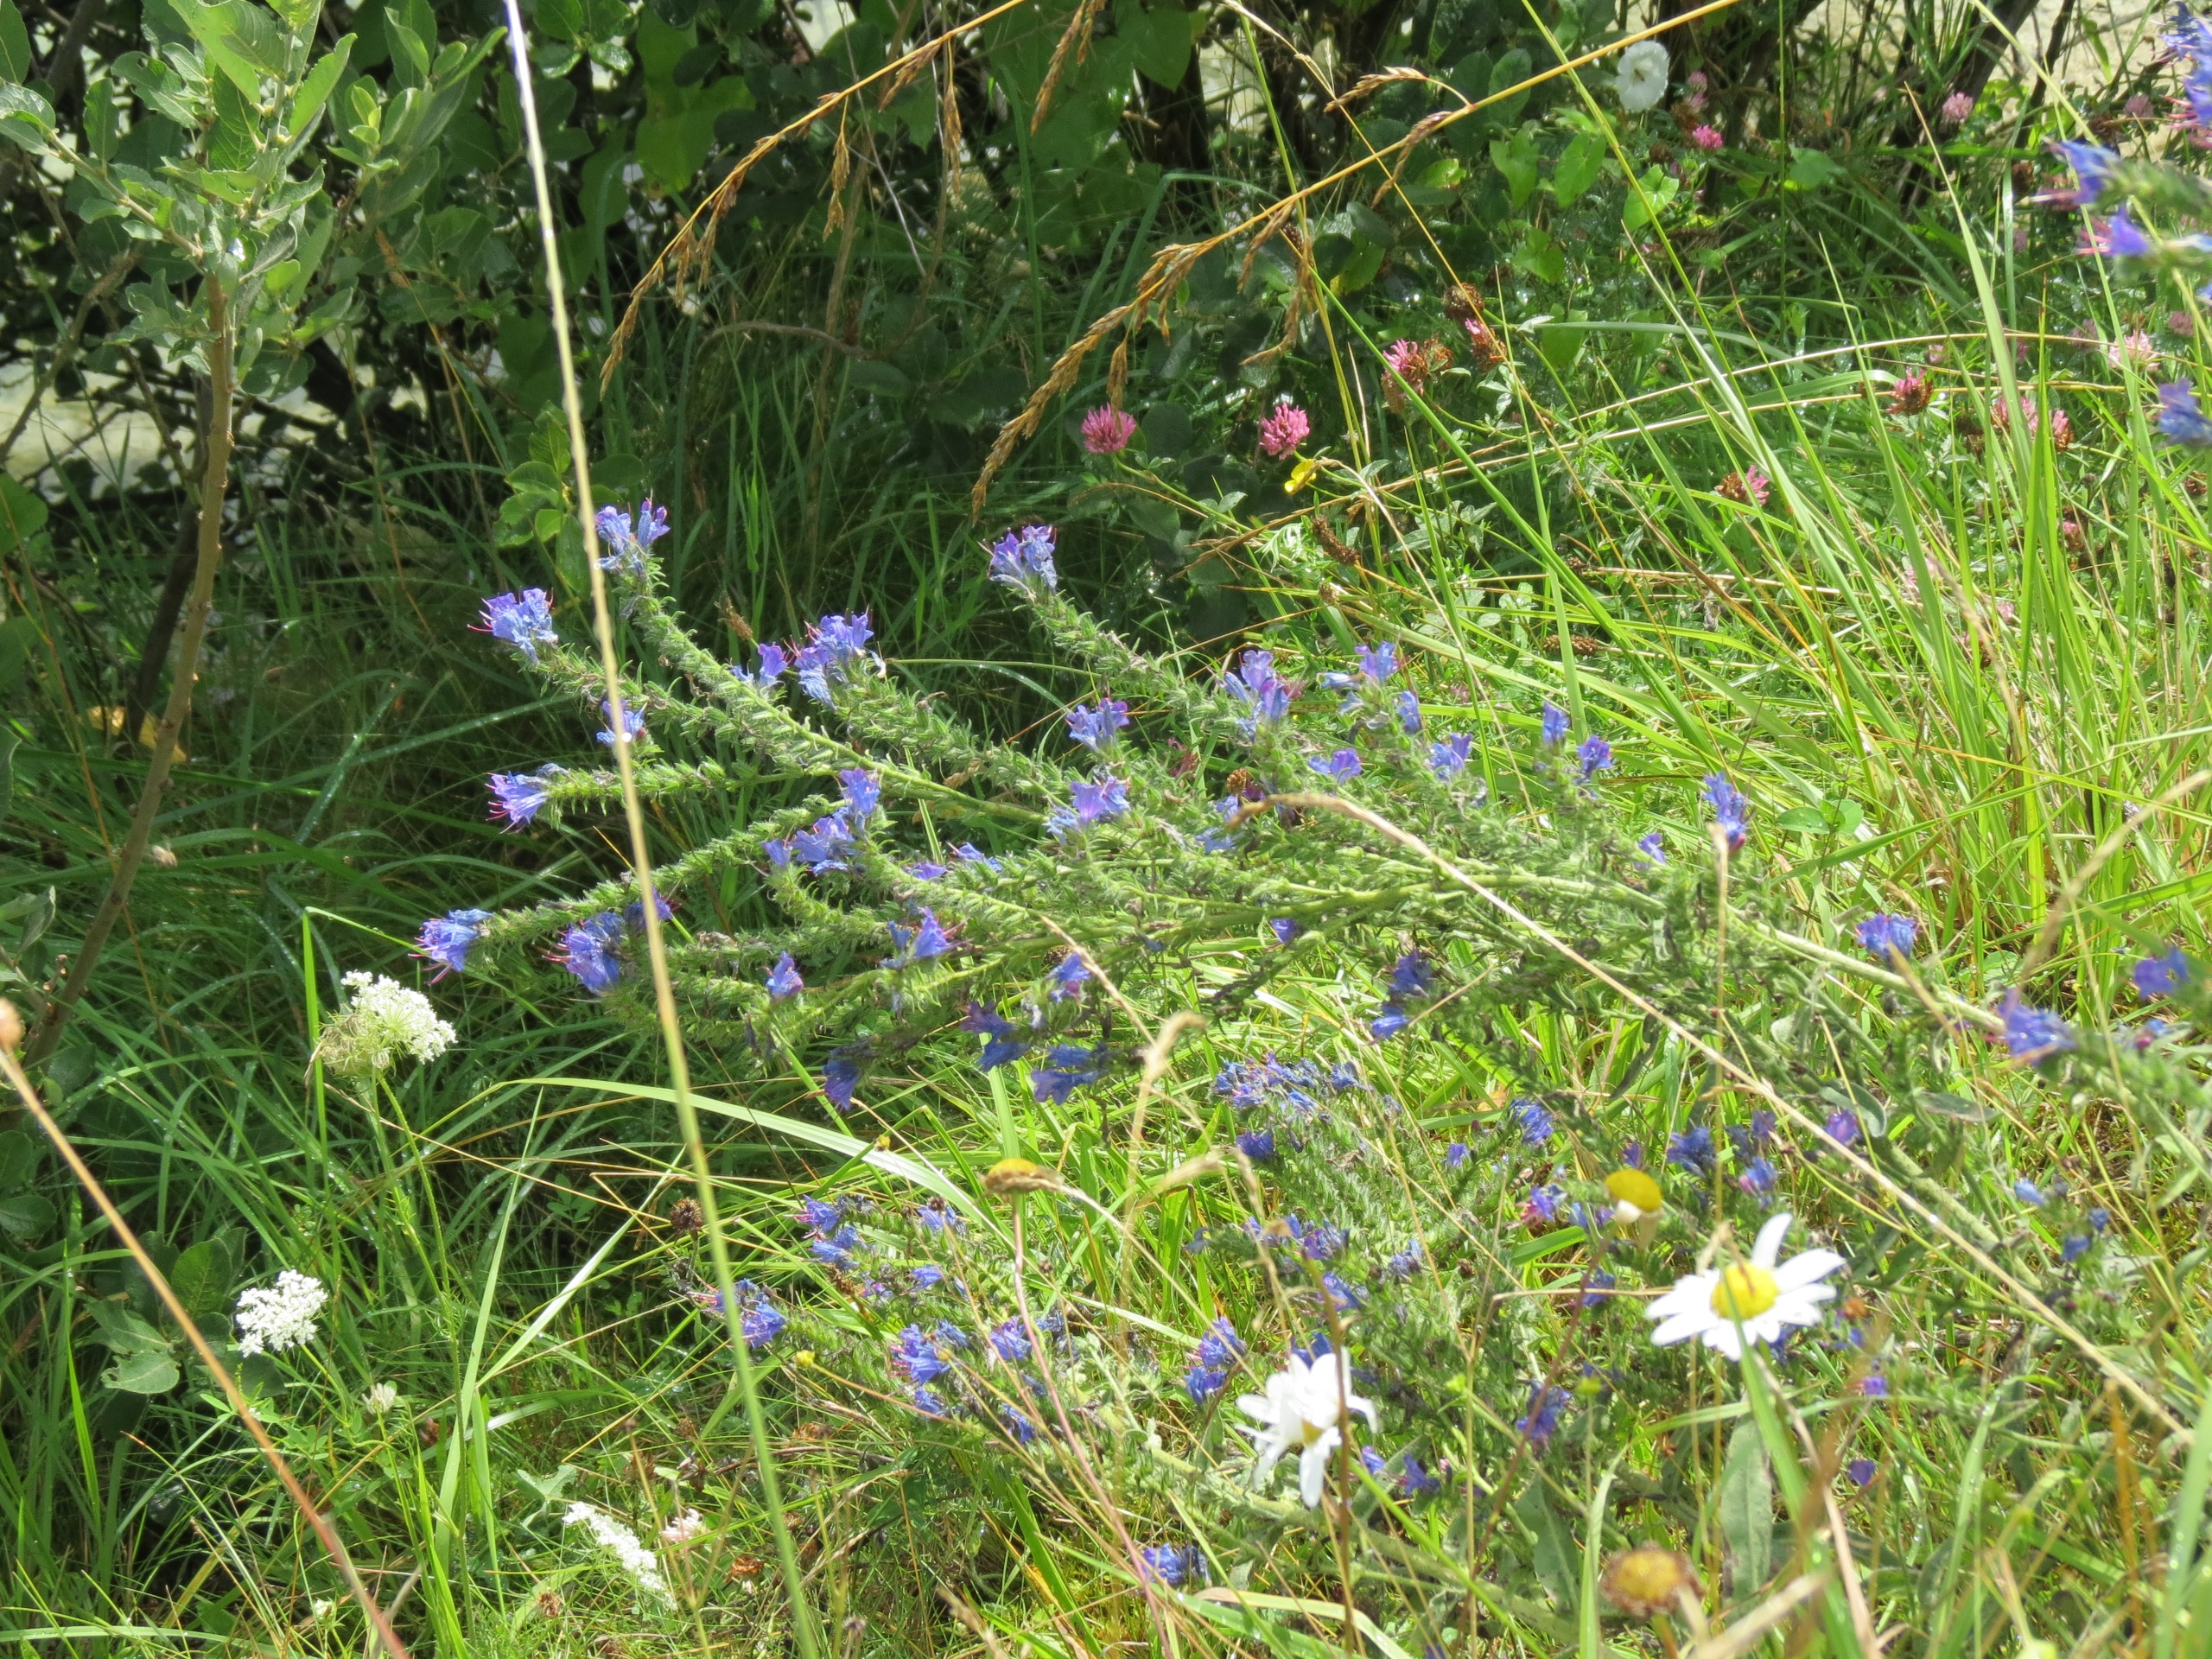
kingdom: Plantae
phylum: Tracheophyta
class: Magnoliopsida
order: Boraginales
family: Boraginaceae
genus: Echium
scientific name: Echium vulgare
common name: Slangehoved
